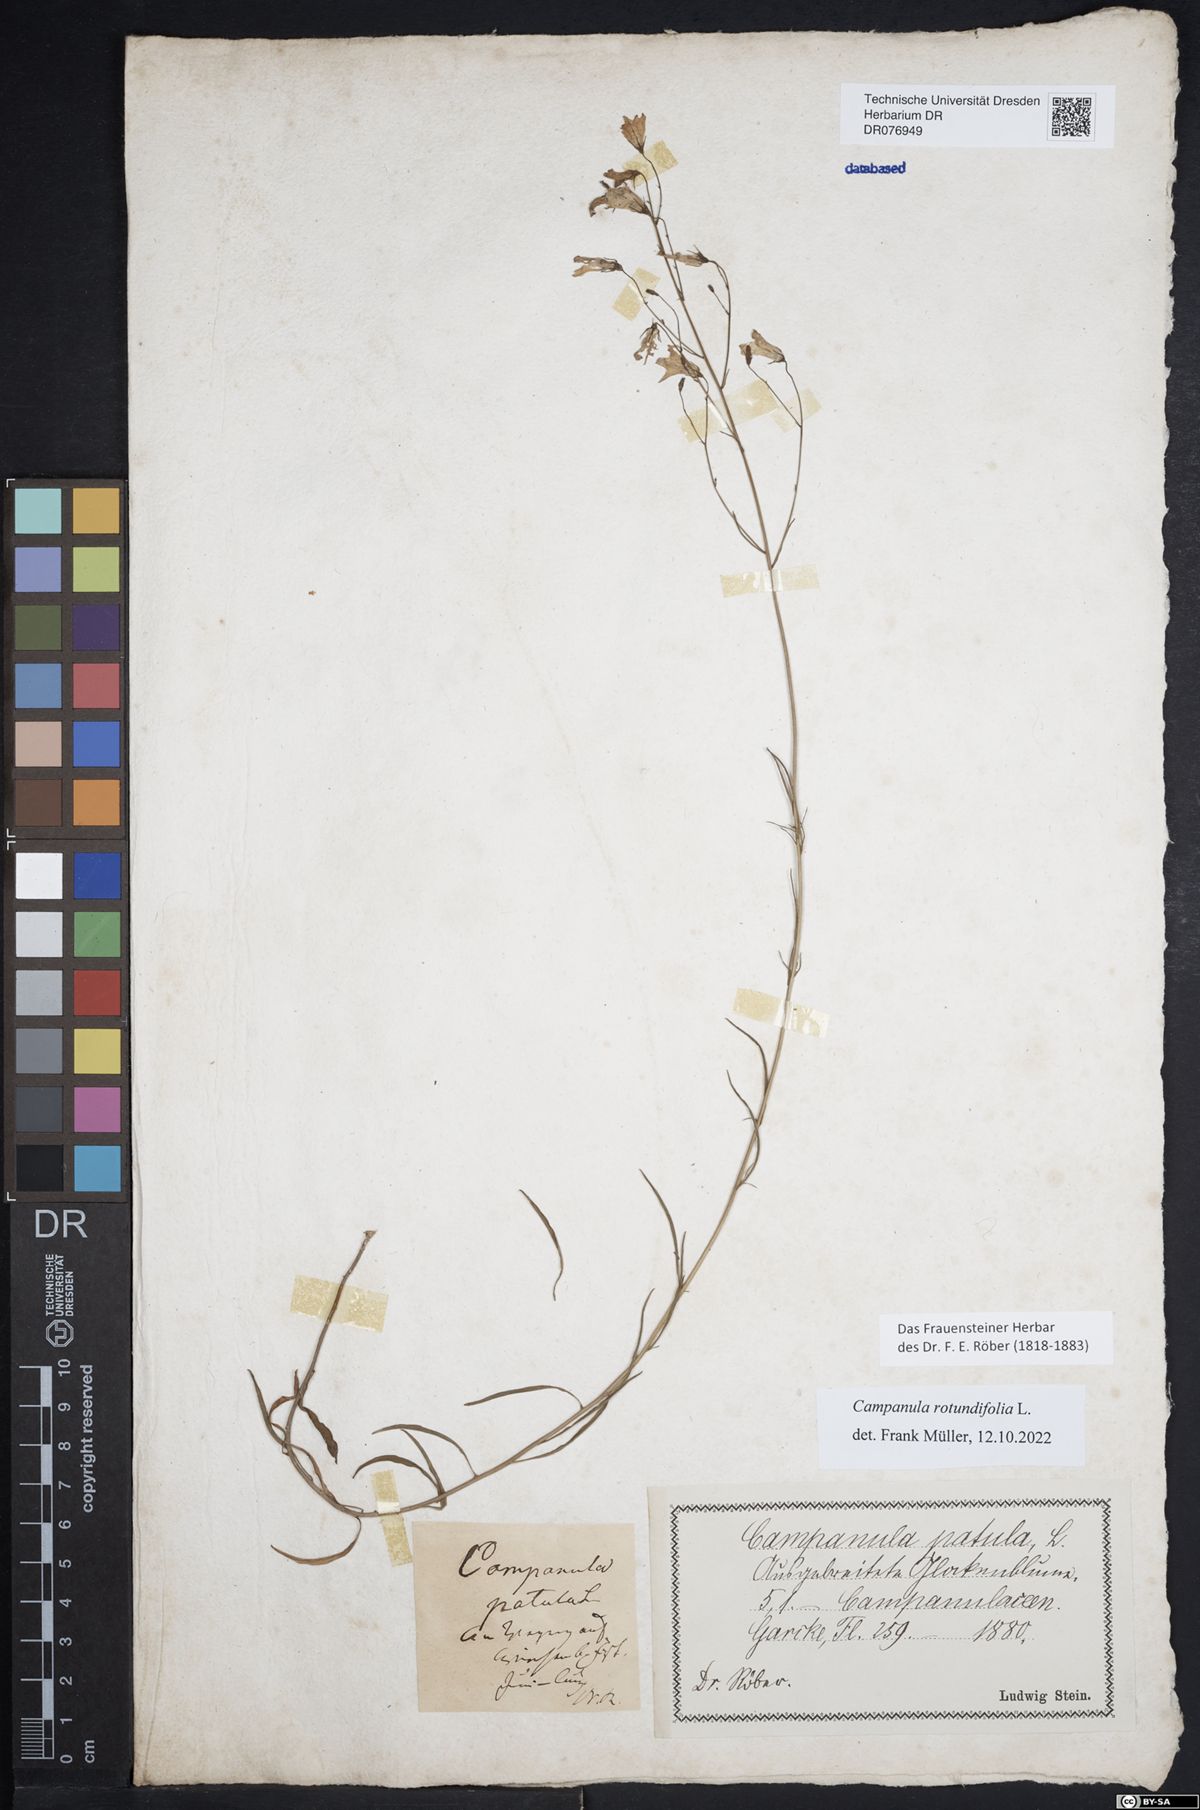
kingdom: Plantae
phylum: Tracheophyta
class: Magnoliopsida
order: Asterales
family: Campanulaceae
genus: Campanula
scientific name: Campanula rotundifolia
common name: Harebell
